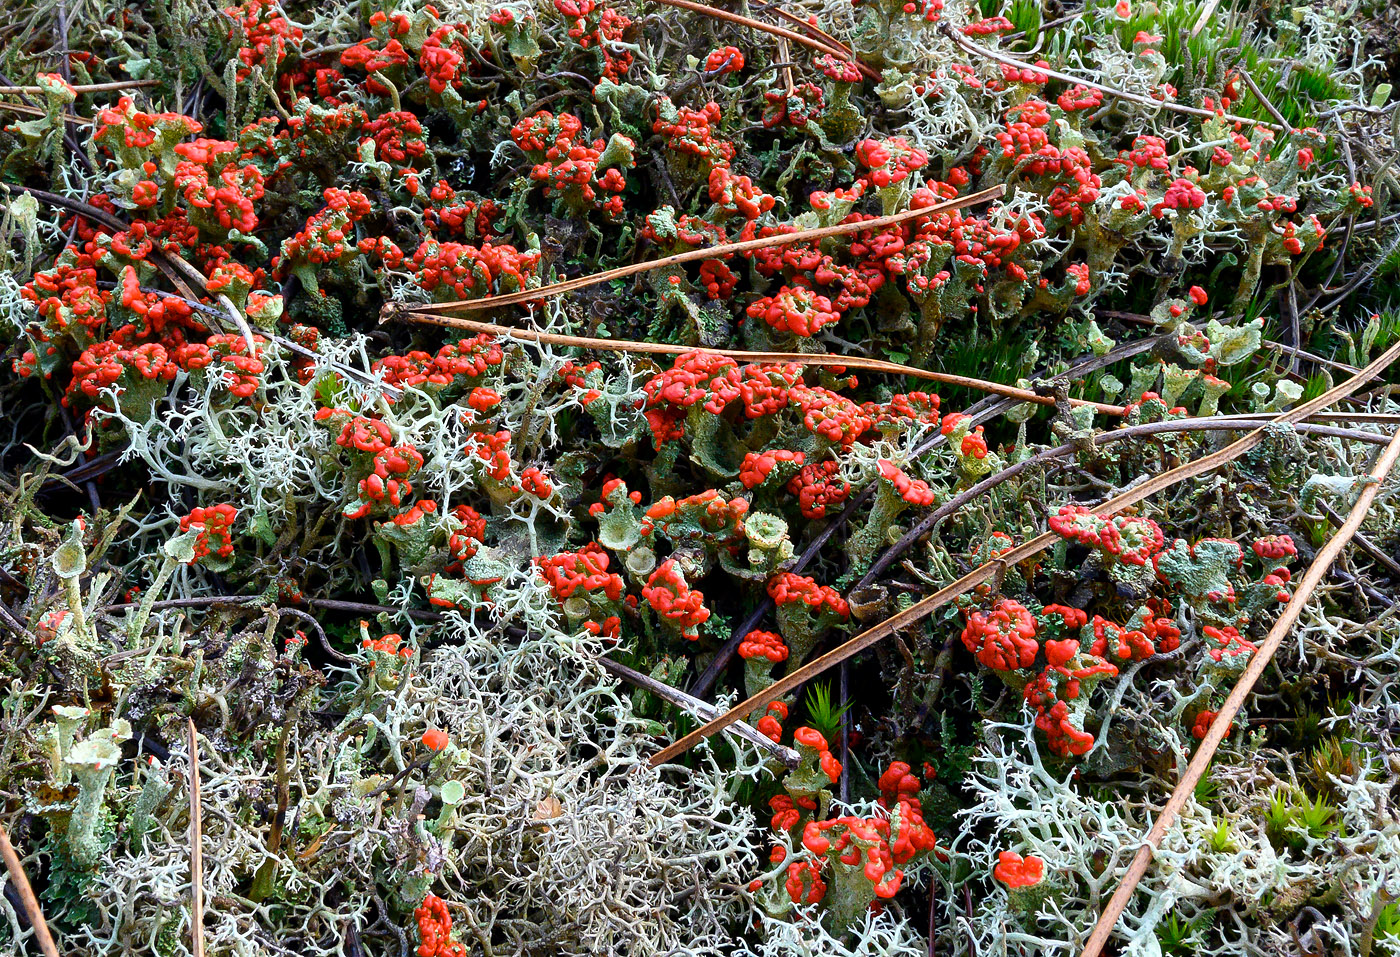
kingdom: Fungi
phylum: Ascomycota
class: Lecanoromycetes
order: Lecanorales
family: Cladoniaceae
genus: Cladonia
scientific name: Cladonia diversa
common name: rød bægerlav
